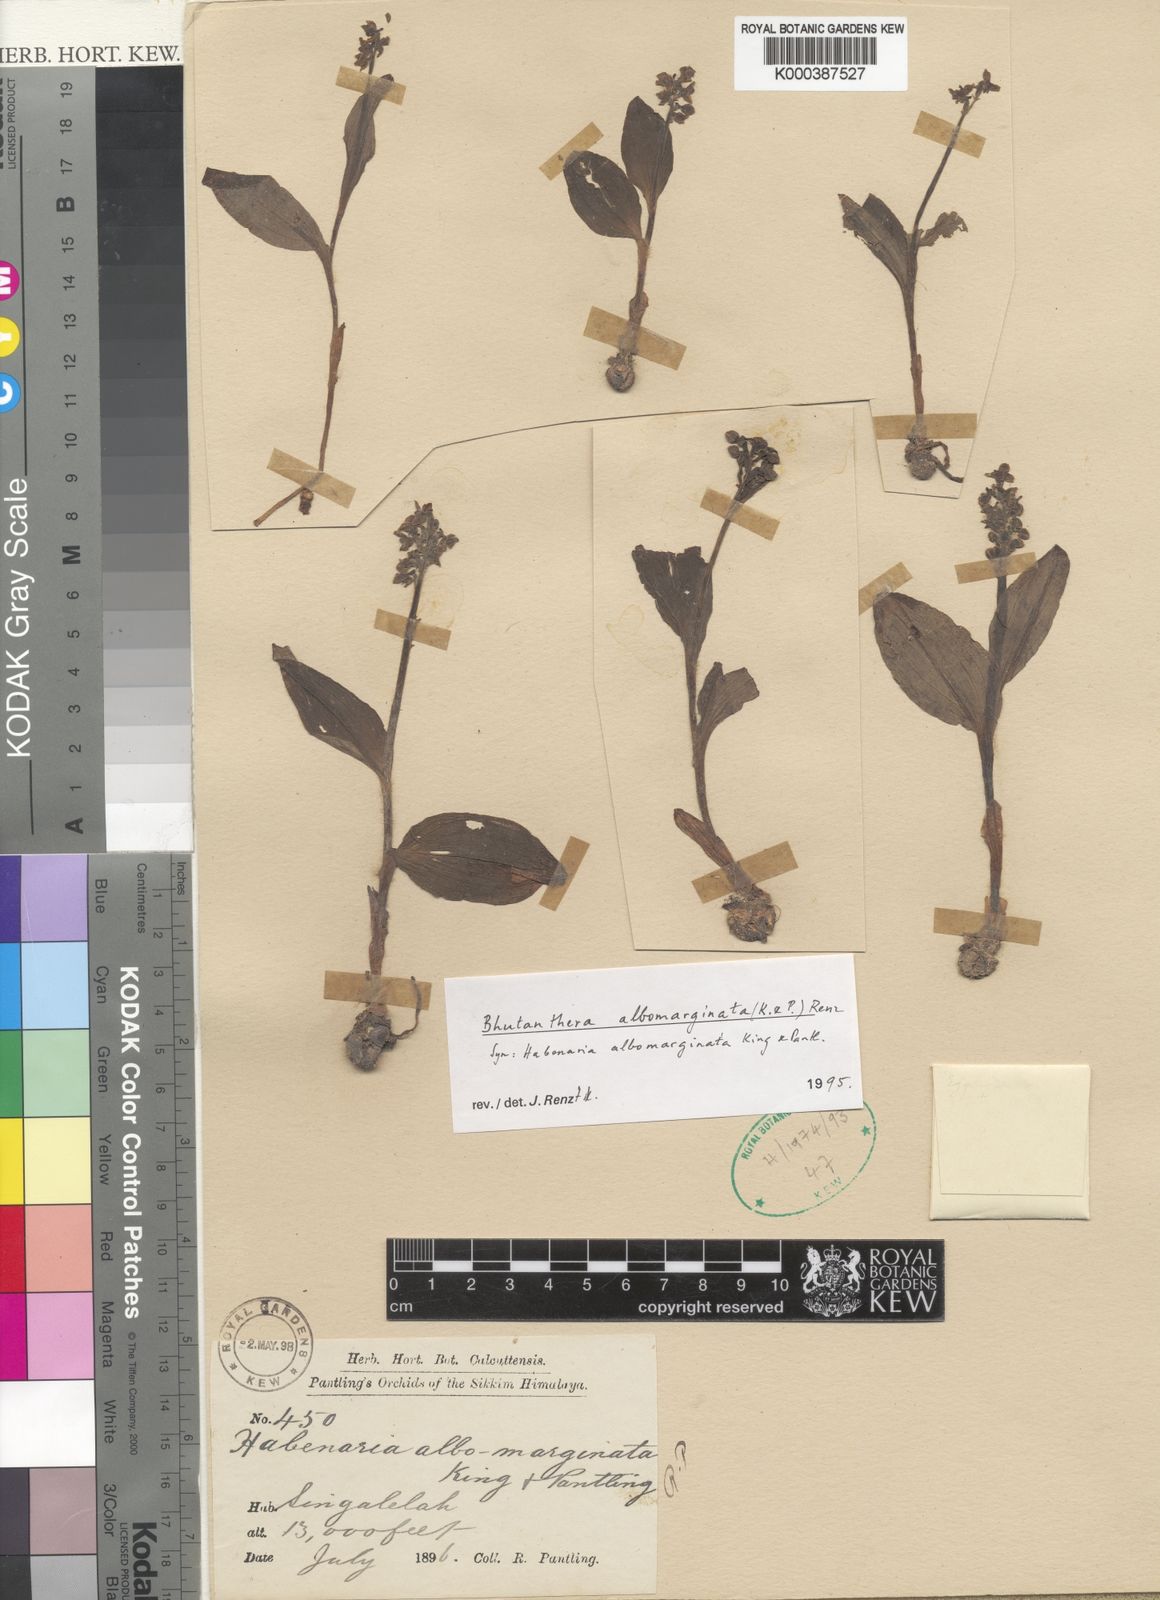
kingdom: Plantae
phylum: Tracheophyta
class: Liliopsida
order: Asparagales
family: Orchidaceae
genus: Herminium
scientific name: Herminium albomarginatum
